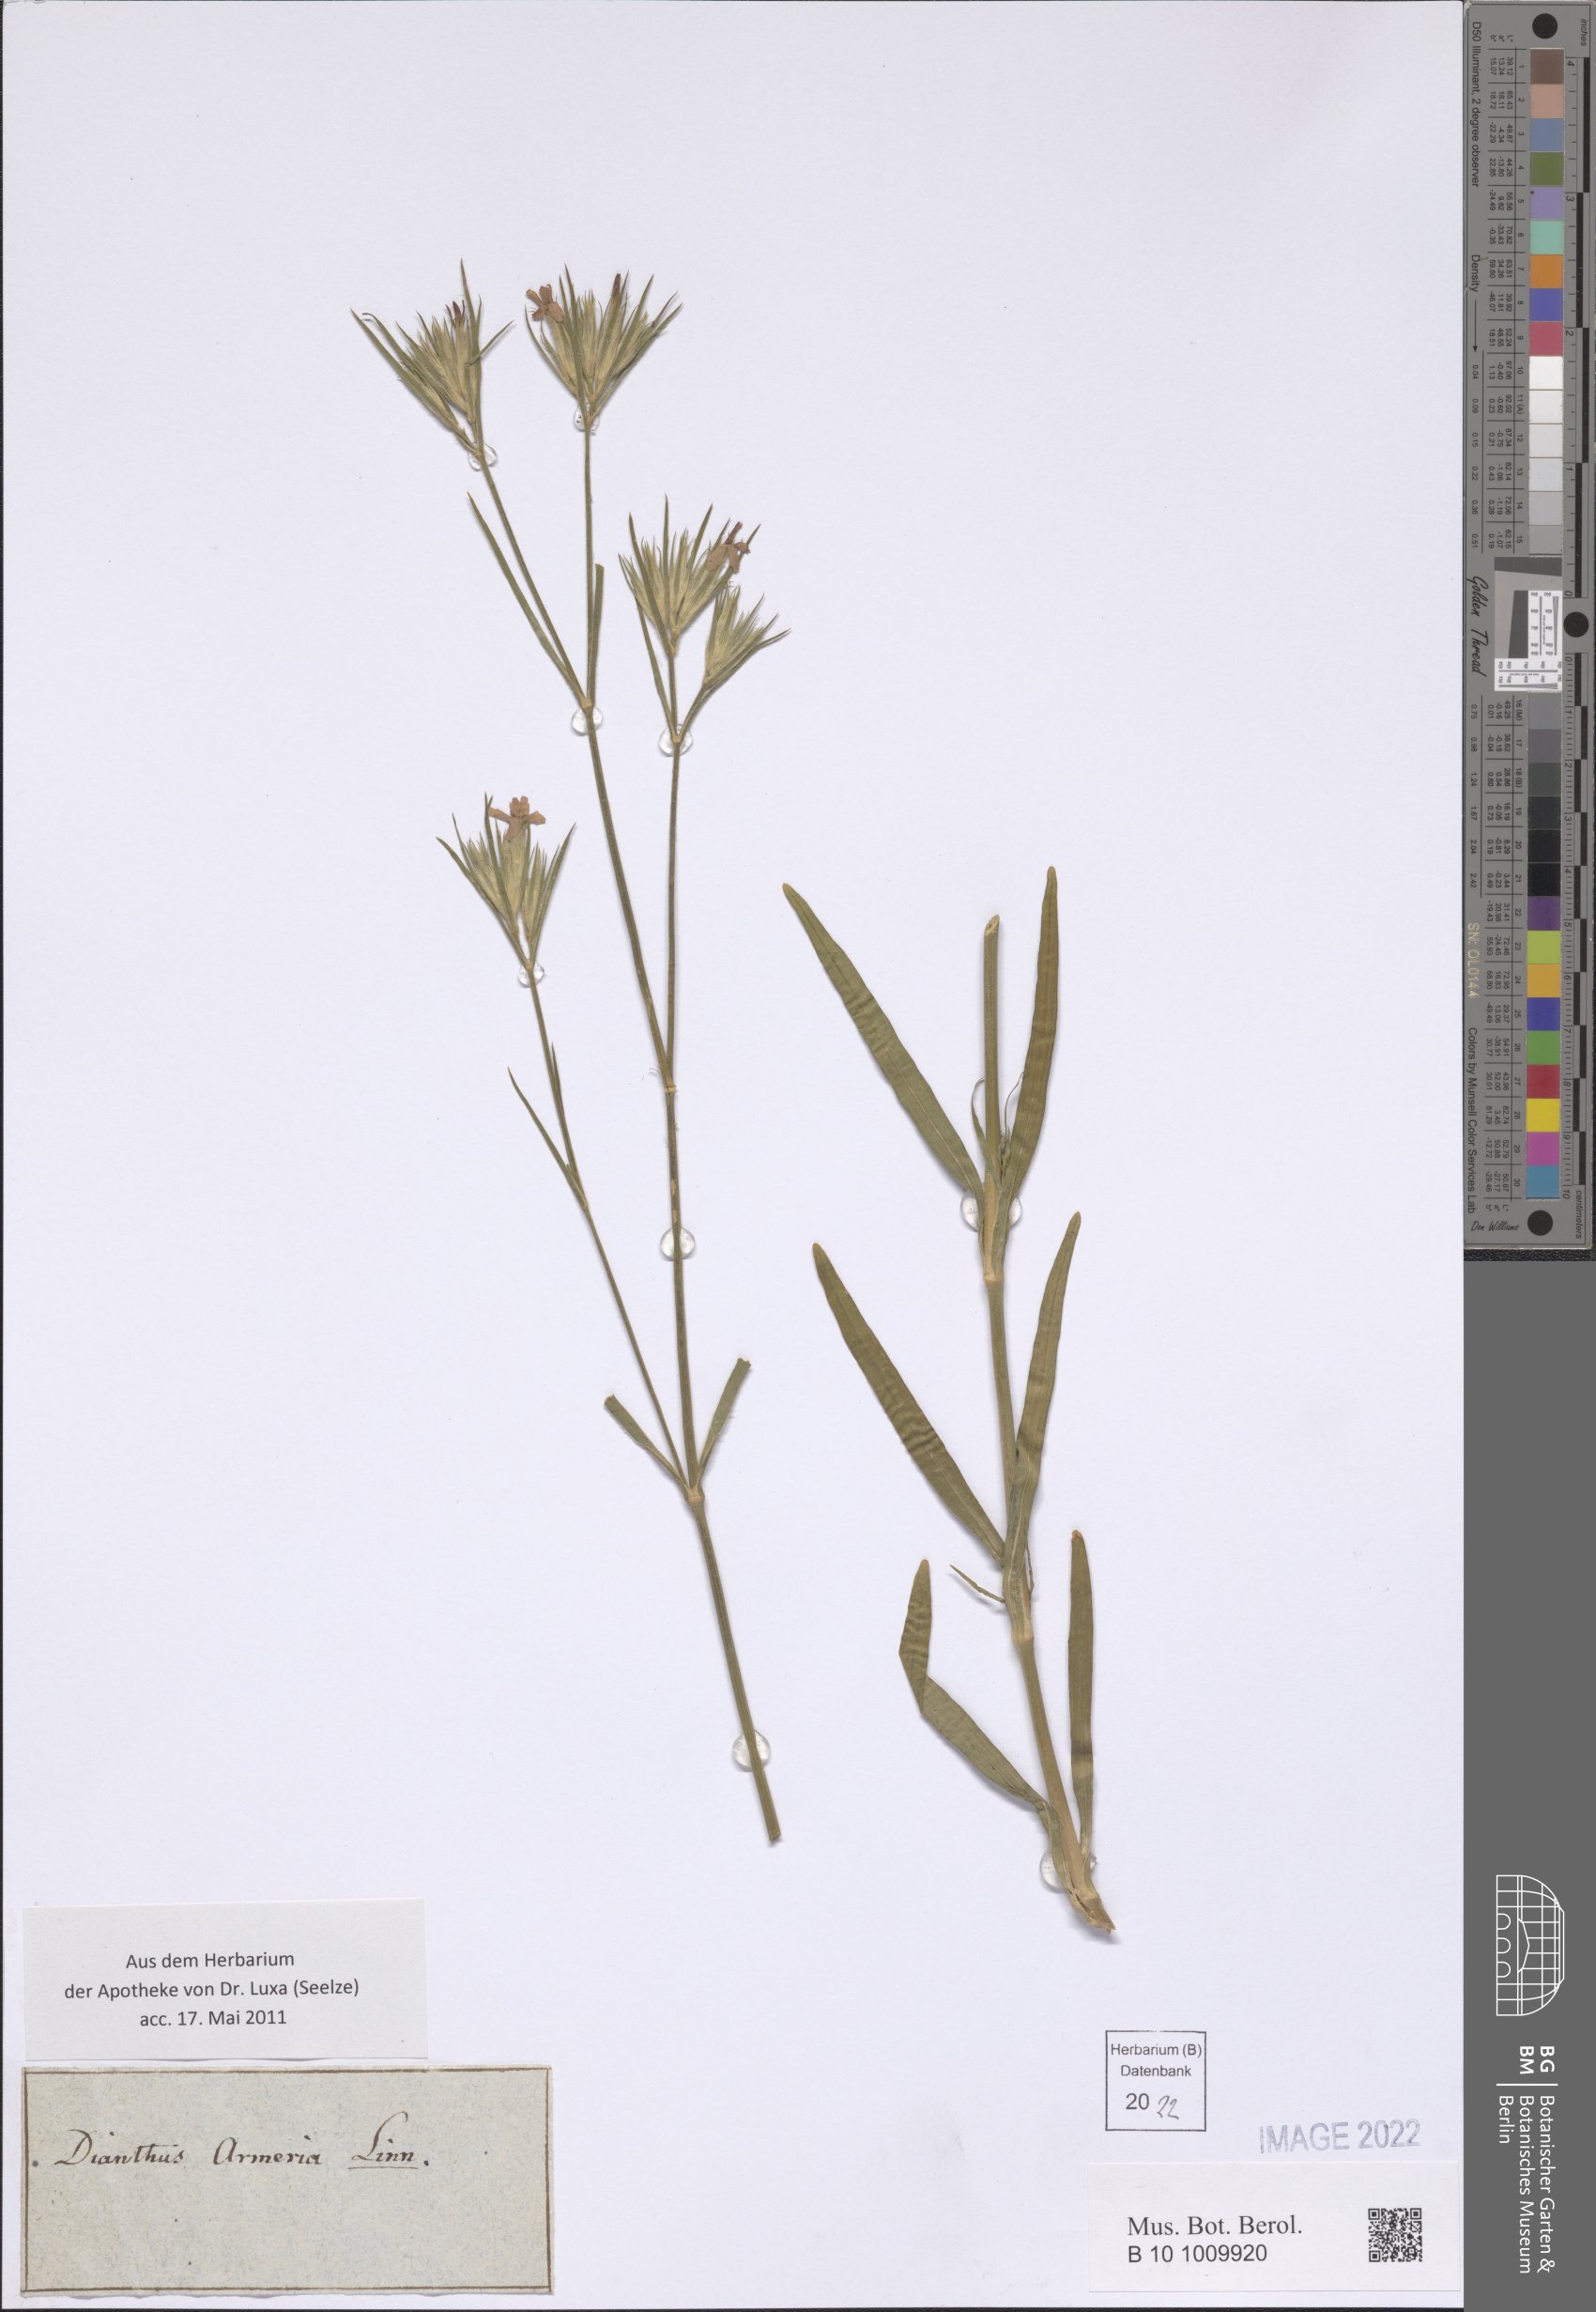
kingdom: Plantae
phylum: Tracheophyta
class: Magnoliopsida
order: Caryophyllales
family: Caryophyllaceae
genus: Dianthus
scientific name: Dianthus armeria
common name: Deptford pink
